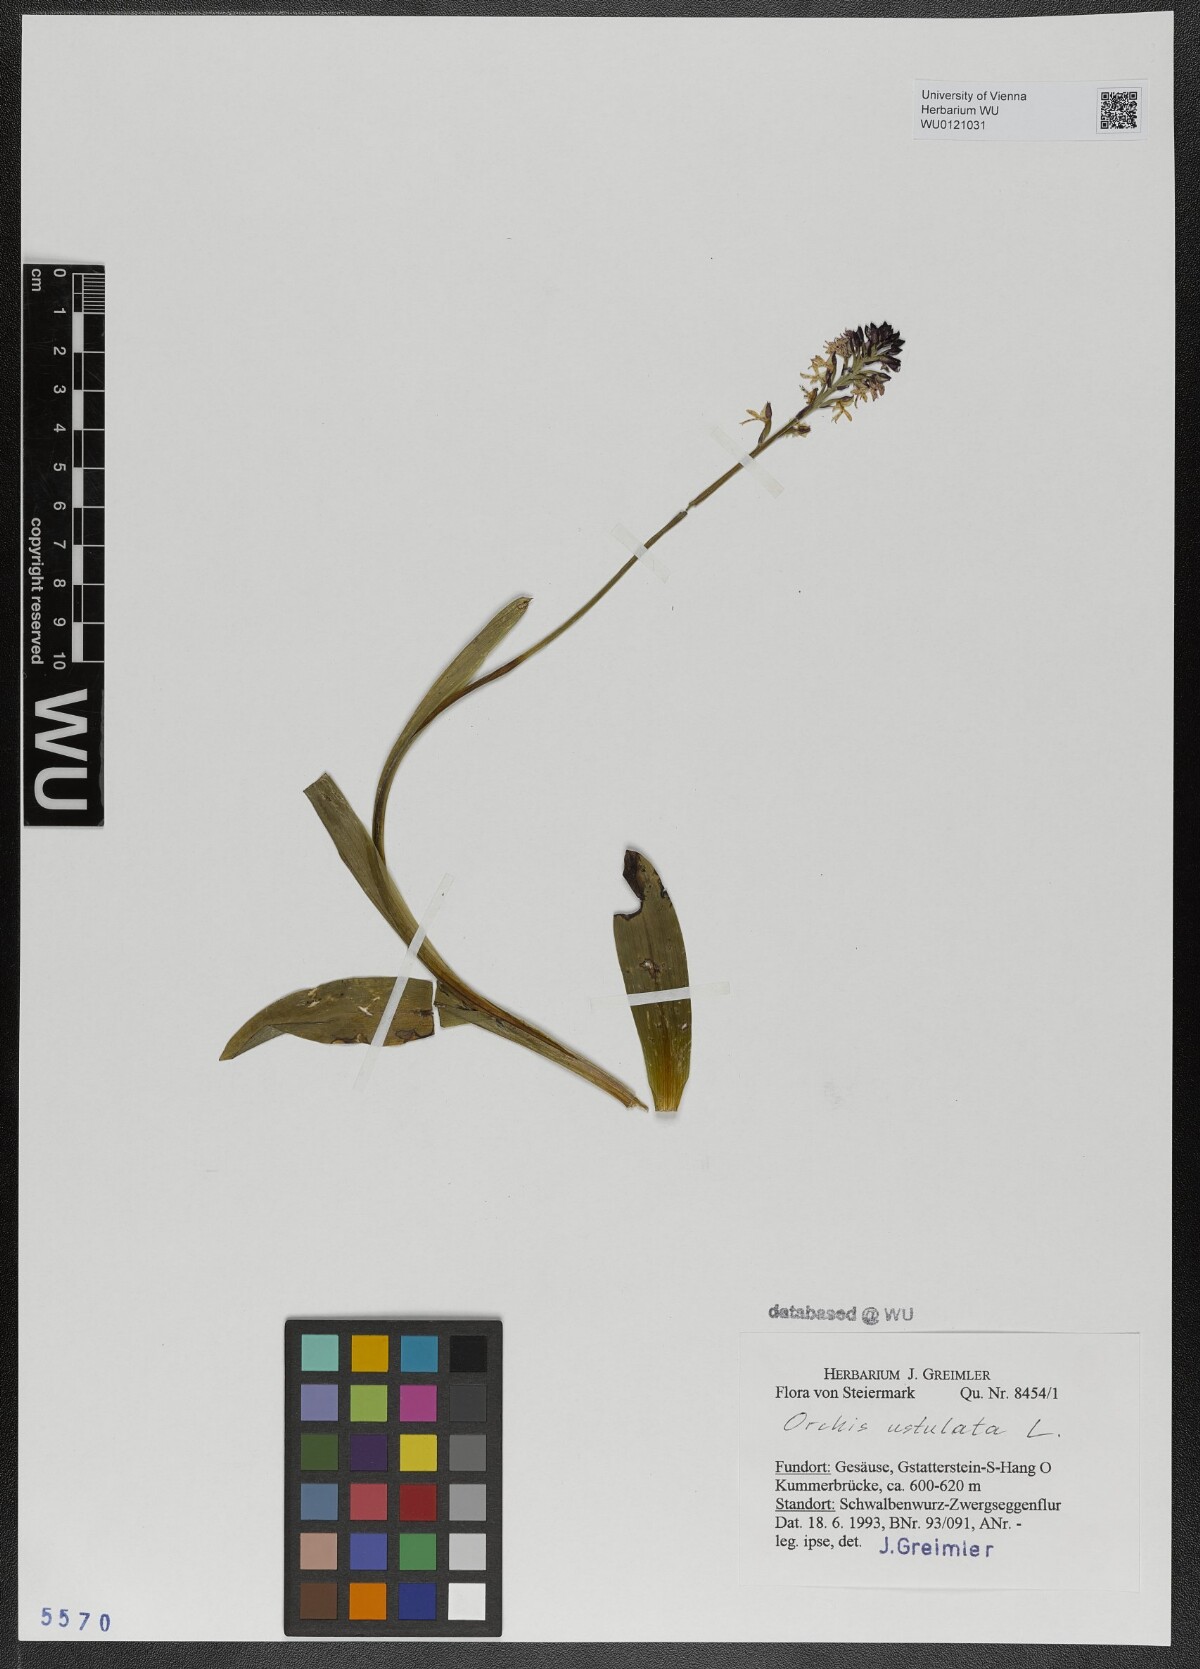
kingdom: Plantae
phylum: Tracheophyta
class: Liliopsida
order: Asparagales
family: Orchidaceae
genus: Neotinea
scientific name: Neotinea ustulata
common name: Burnt orchid
